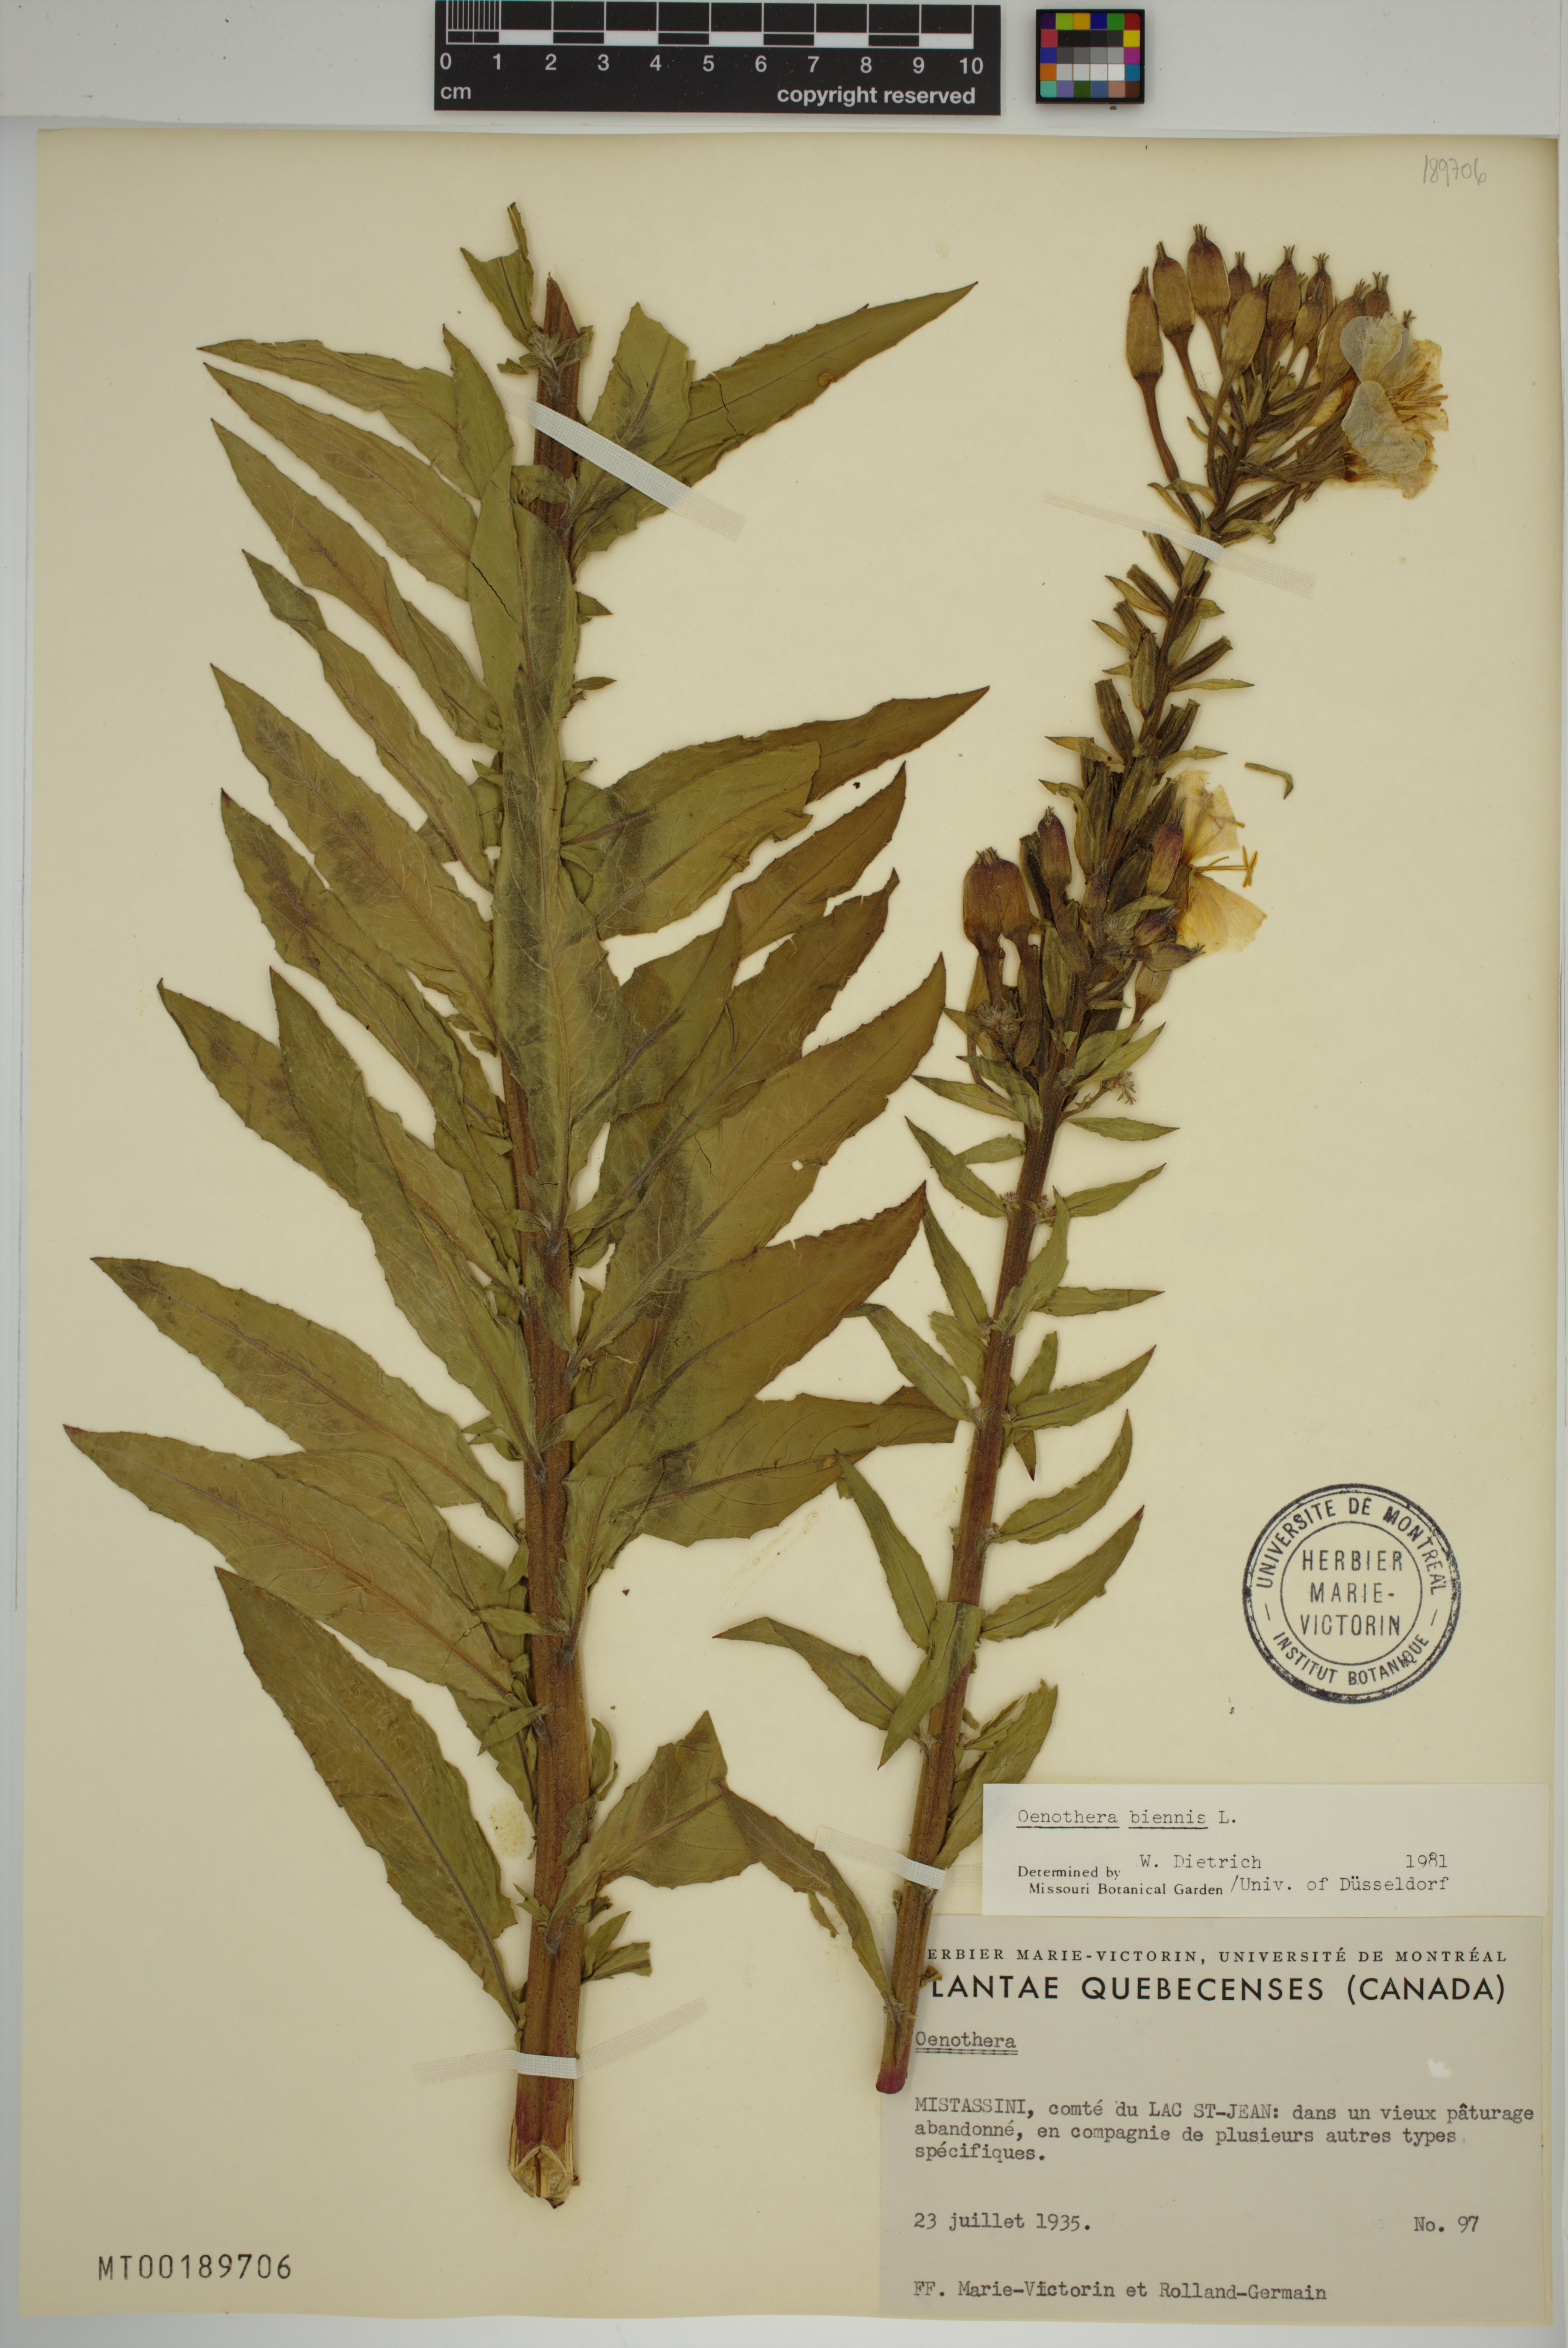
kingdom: Plantae
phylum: Tracheophyta
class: Magnoliopsida
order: Myrtales
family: Onagraceae
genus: Oenothera
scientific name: Oenothera biennis
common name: Common evening-primrose
